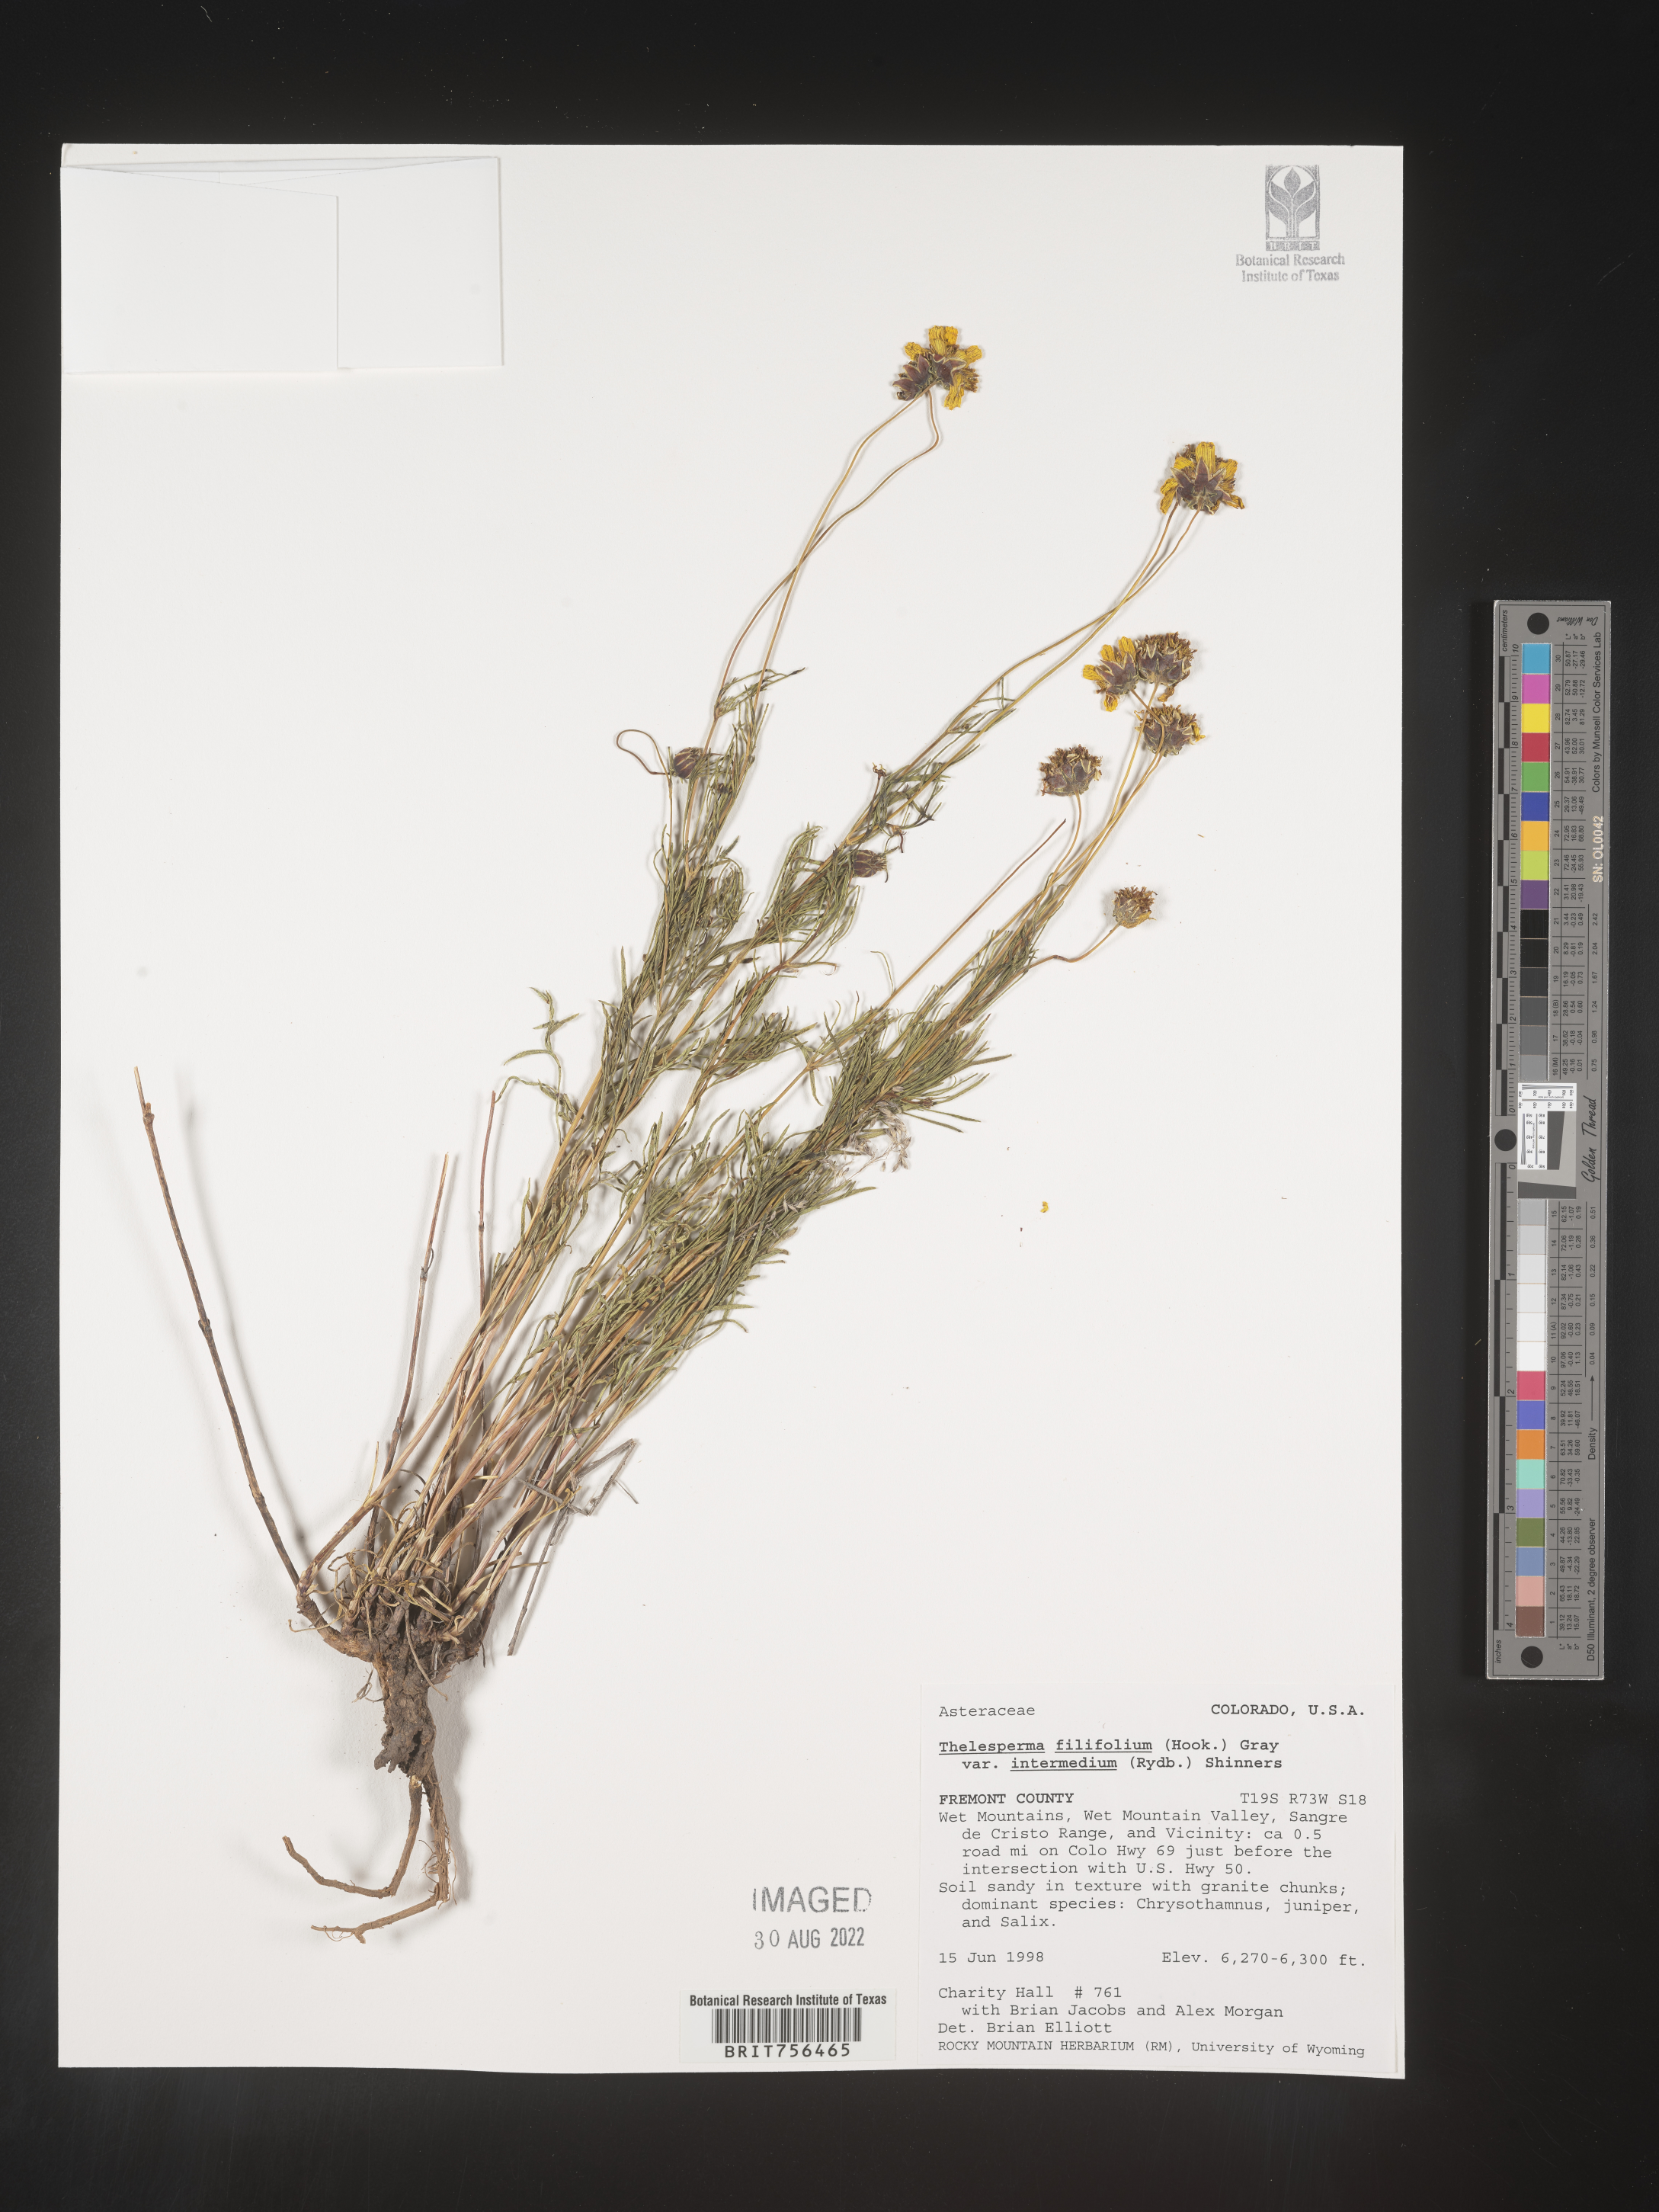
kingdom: Plantae
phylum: Tracheophyta
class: Magnoliopsida
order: Asterales
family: Asteraceae
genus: Thelesperma
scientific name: Thelesperma filifolium
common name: Stiff greenthread
